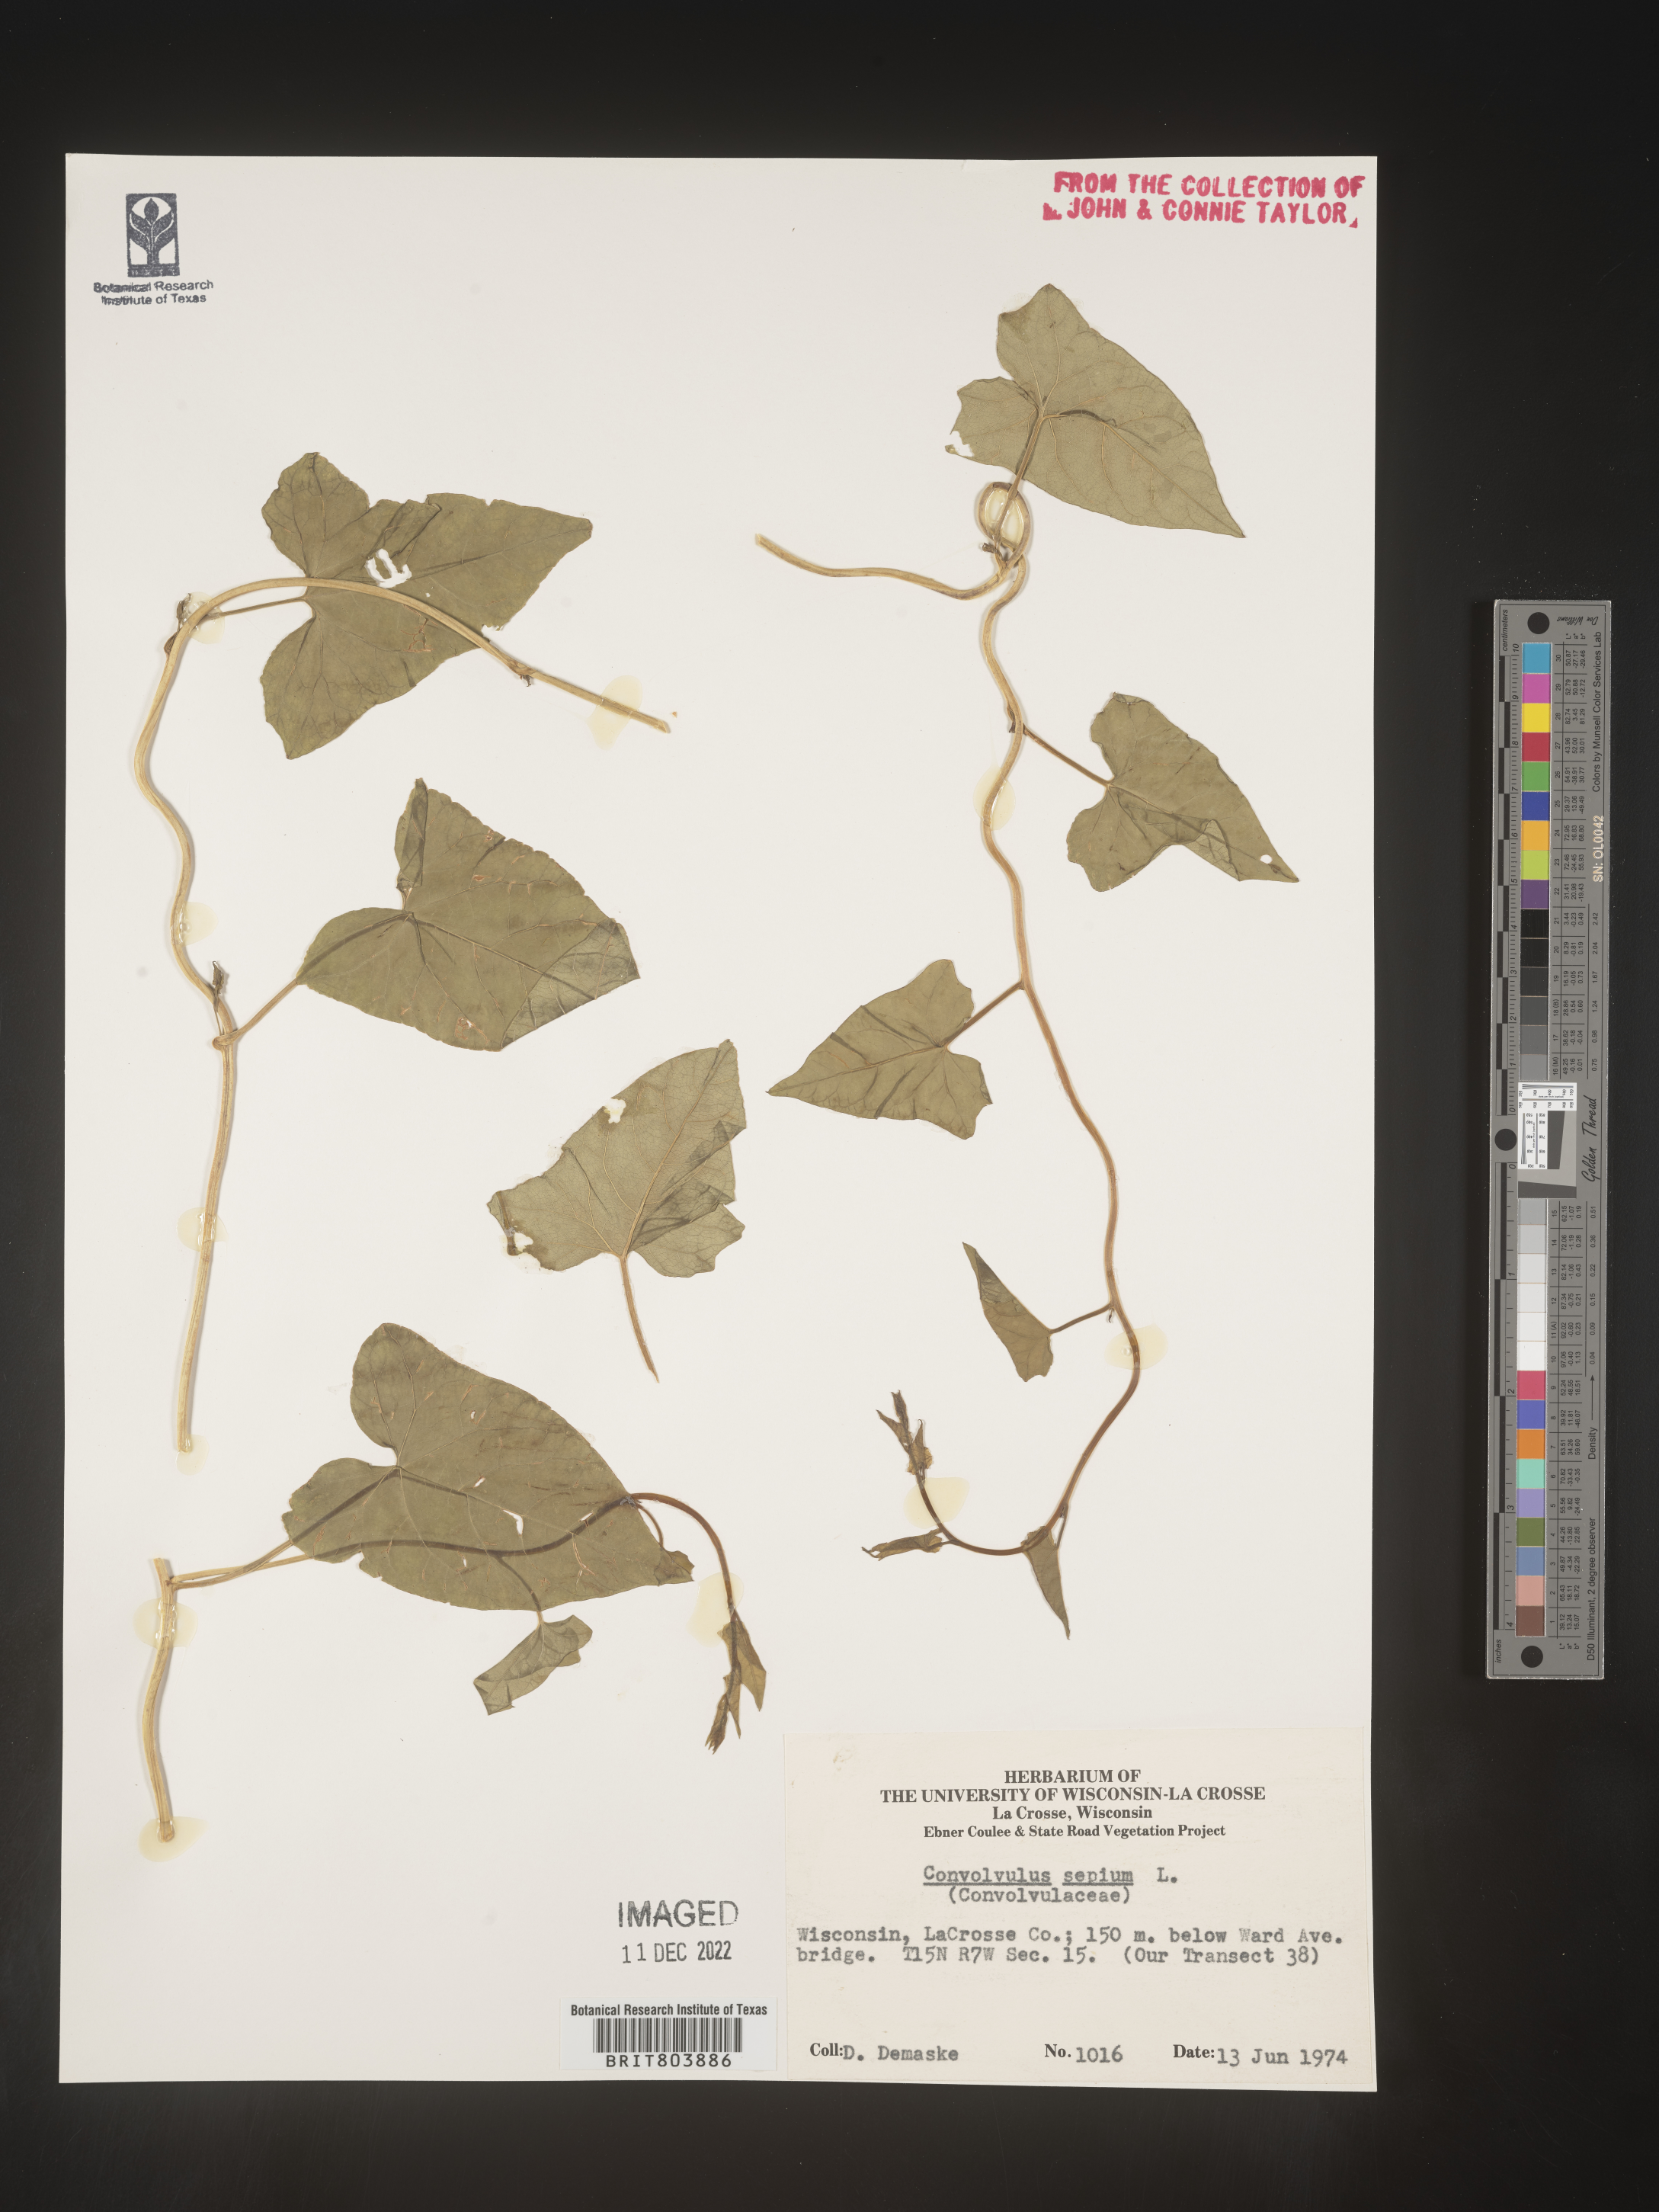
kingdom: Plantae
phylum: Tracheophyta
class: Magnoliopsida
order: Solanales
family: Convolvulaceae
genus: Calystegia
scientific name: Calystegia sepium
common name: Hedge bindweed
